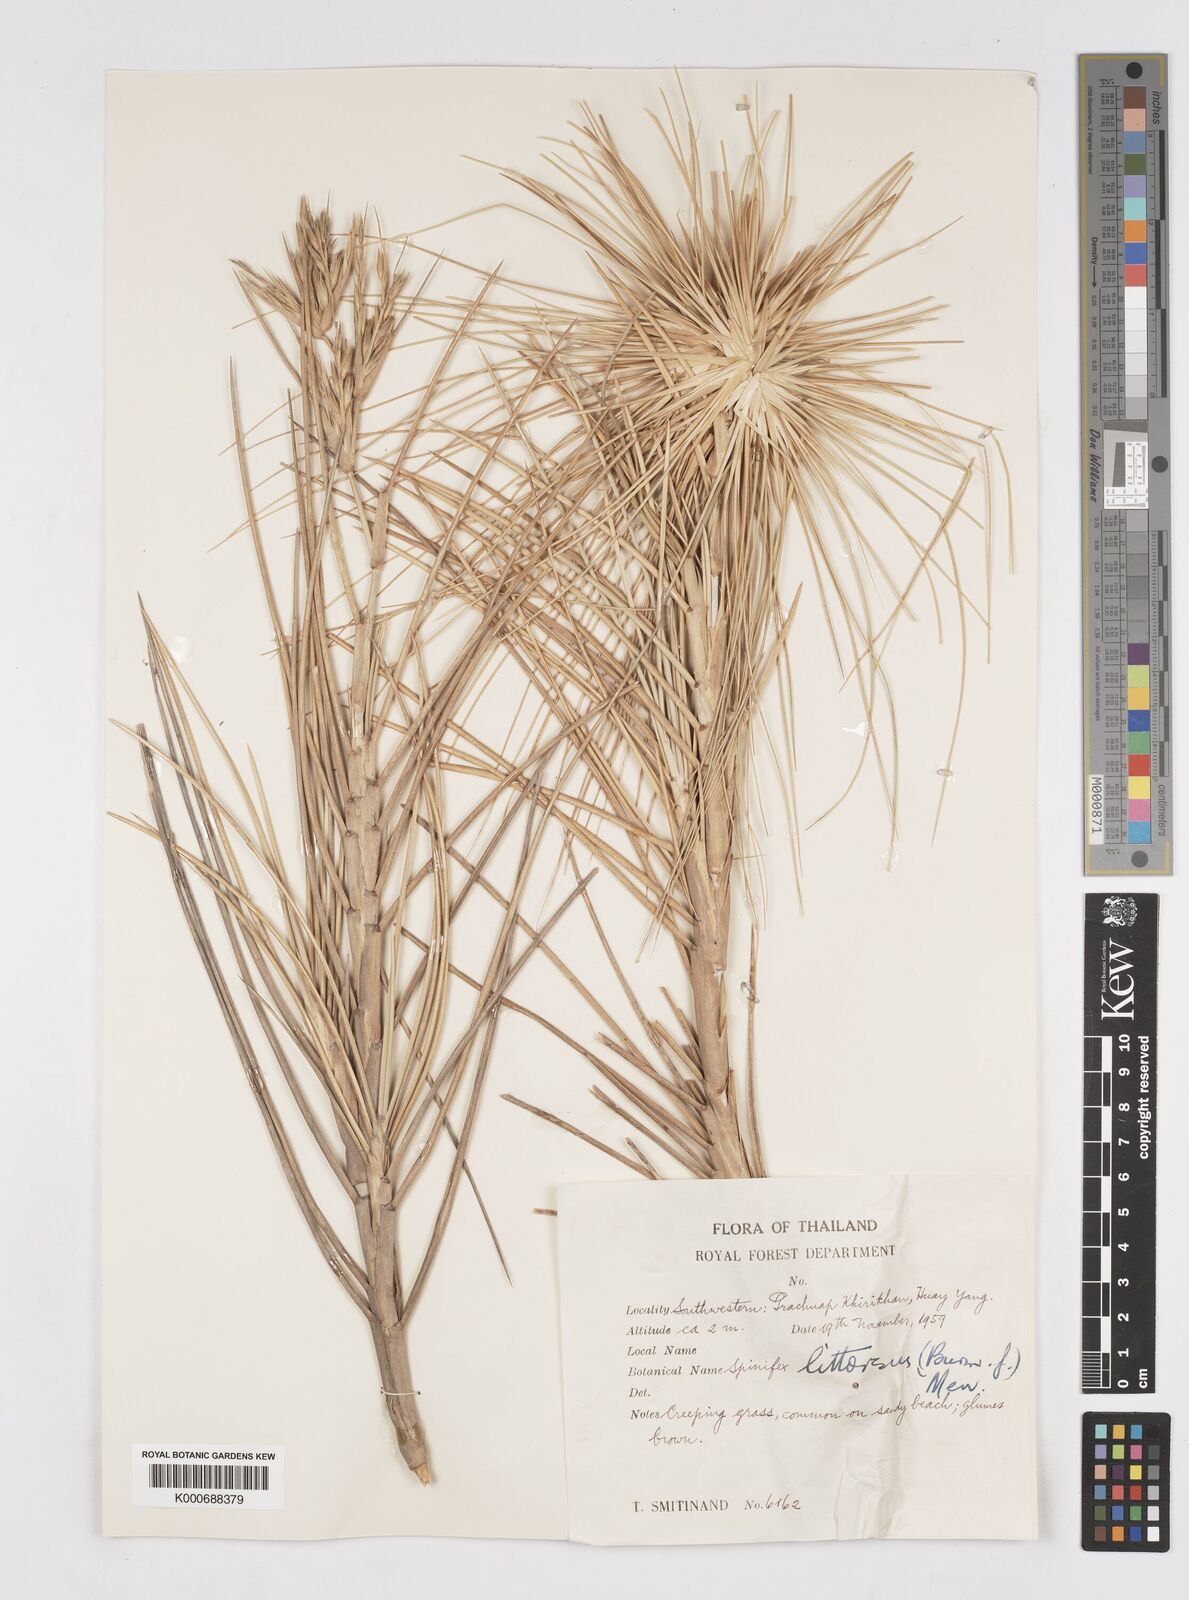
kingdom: Plantae
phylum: Tracheophyta
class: Liliopsida
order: Poales
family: Poaceae
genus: Spinifex
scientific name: Spinifex littoreus
